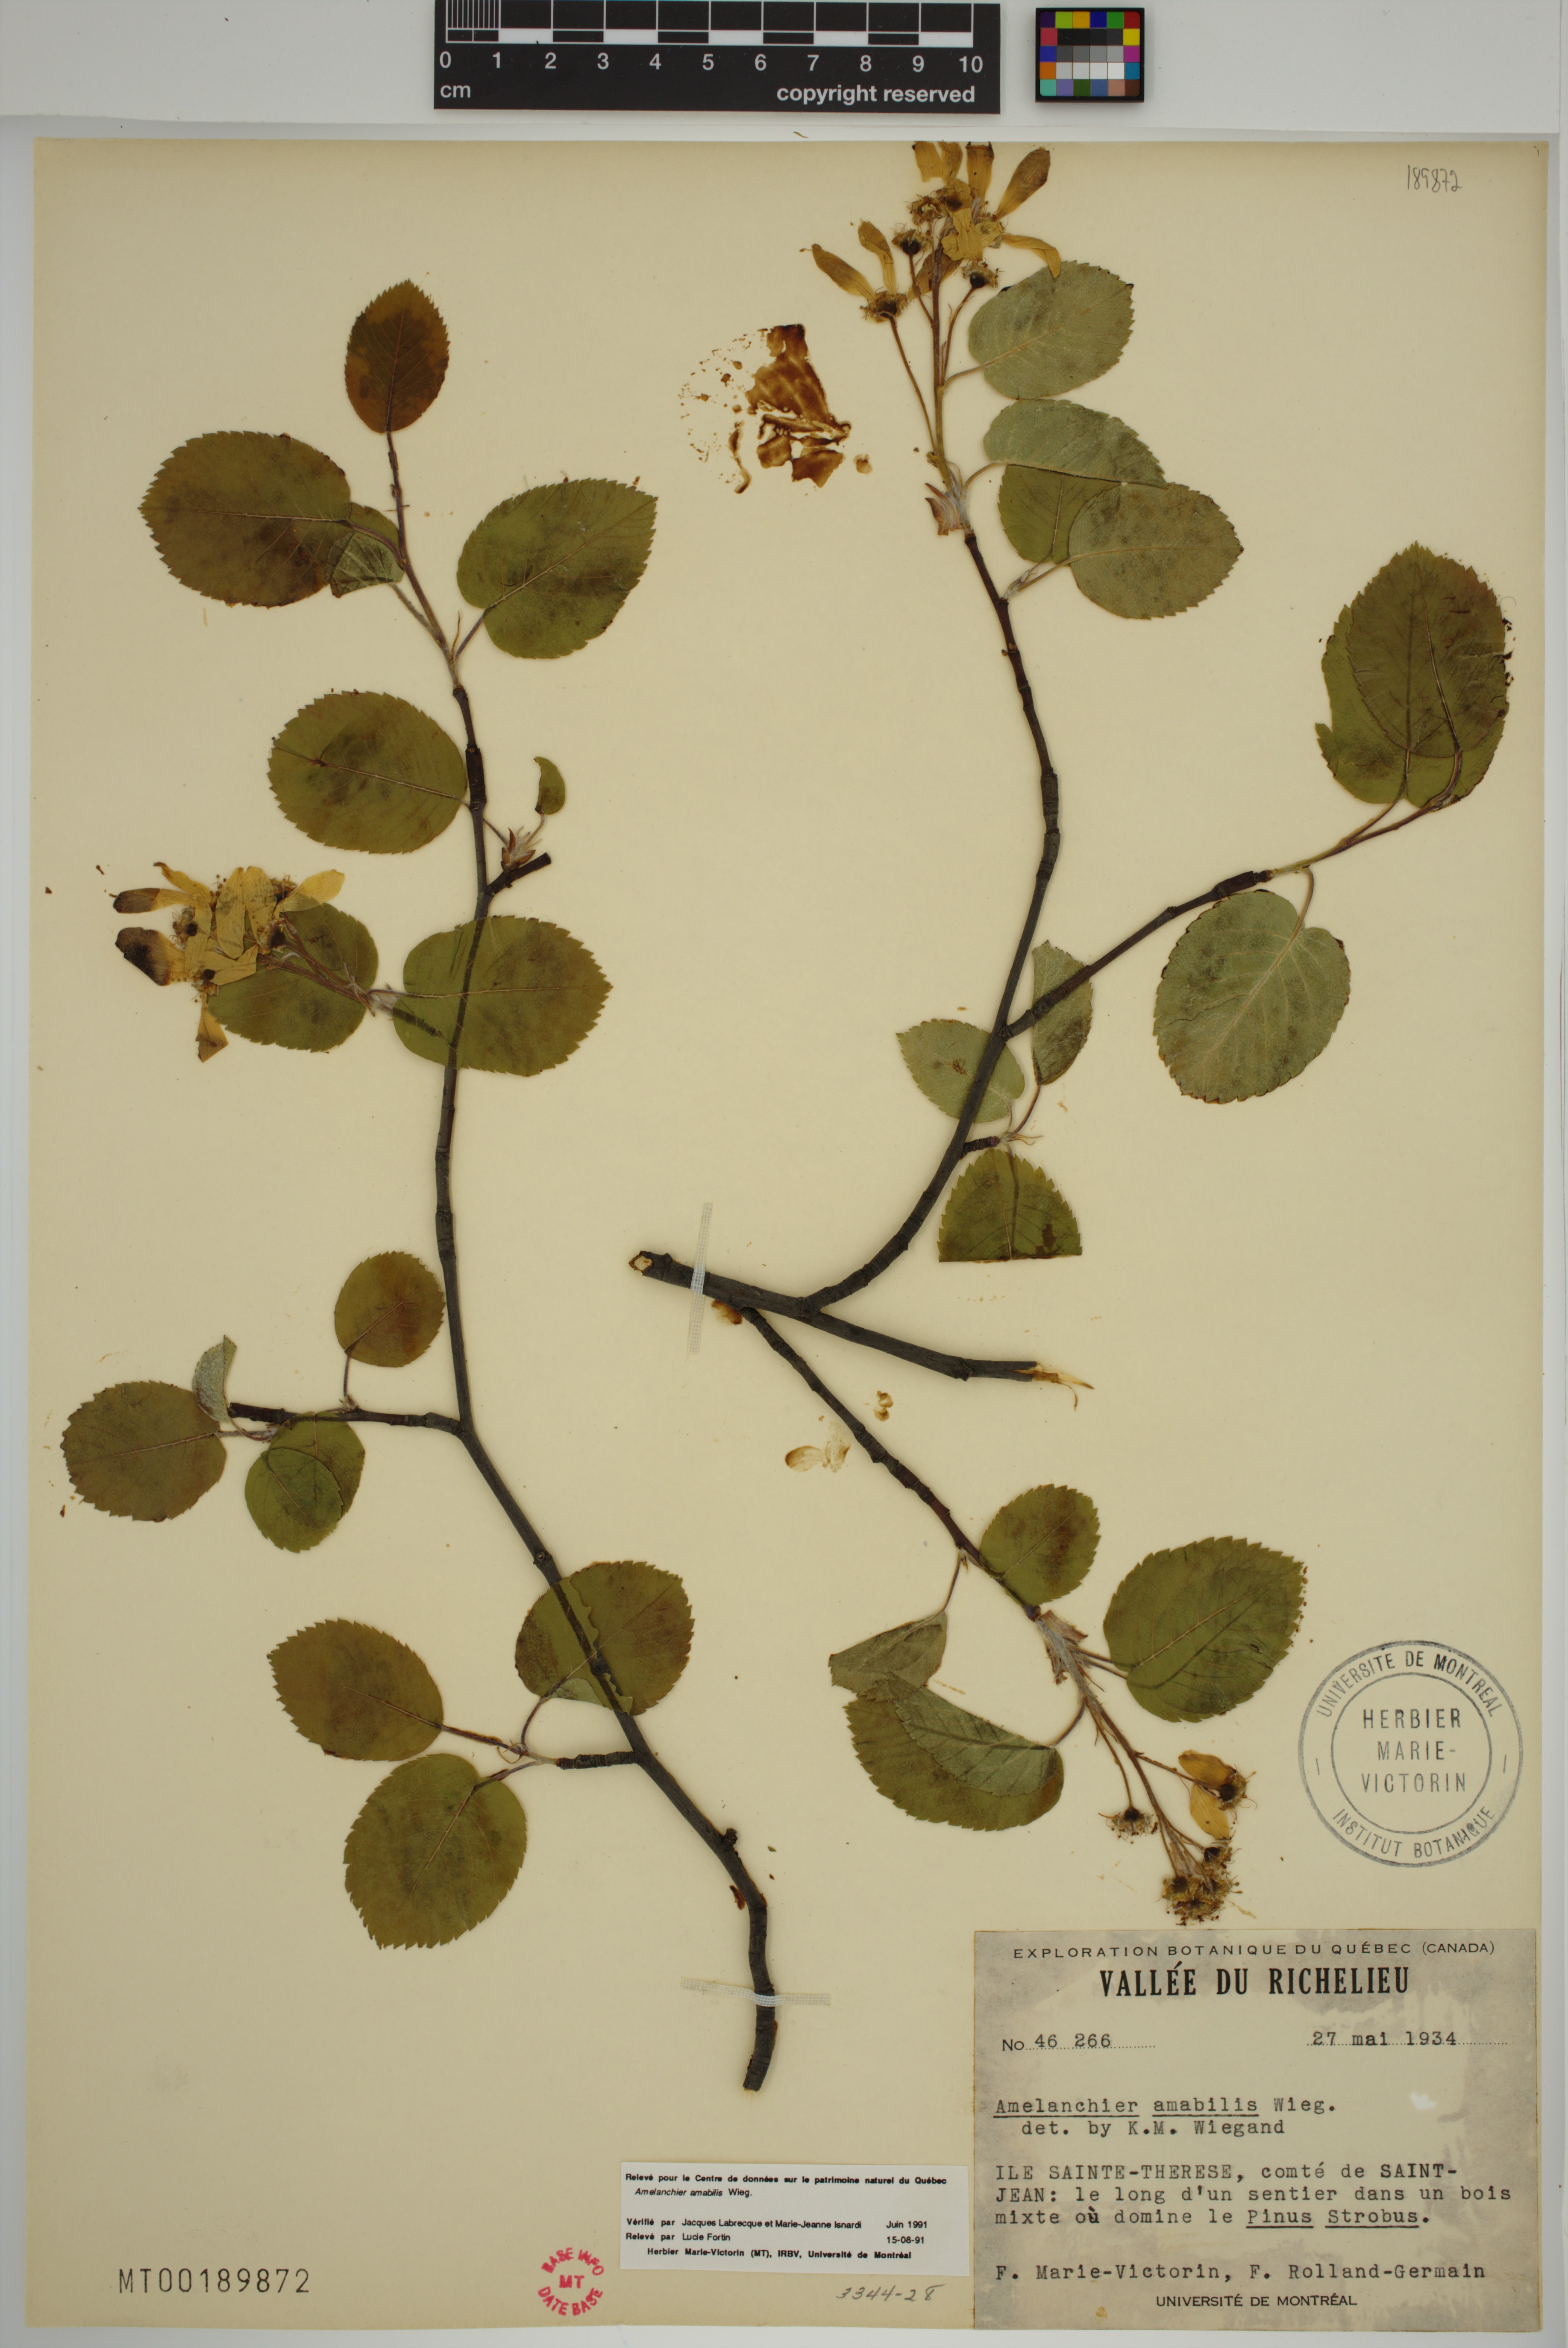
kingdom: Plantae
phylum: Tracheophyta
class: Magnoliopsida
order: Rosales
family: Rosaceae
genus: Amelanchier
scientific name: Amelanchier sanguinea
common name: Huron serviceberry
